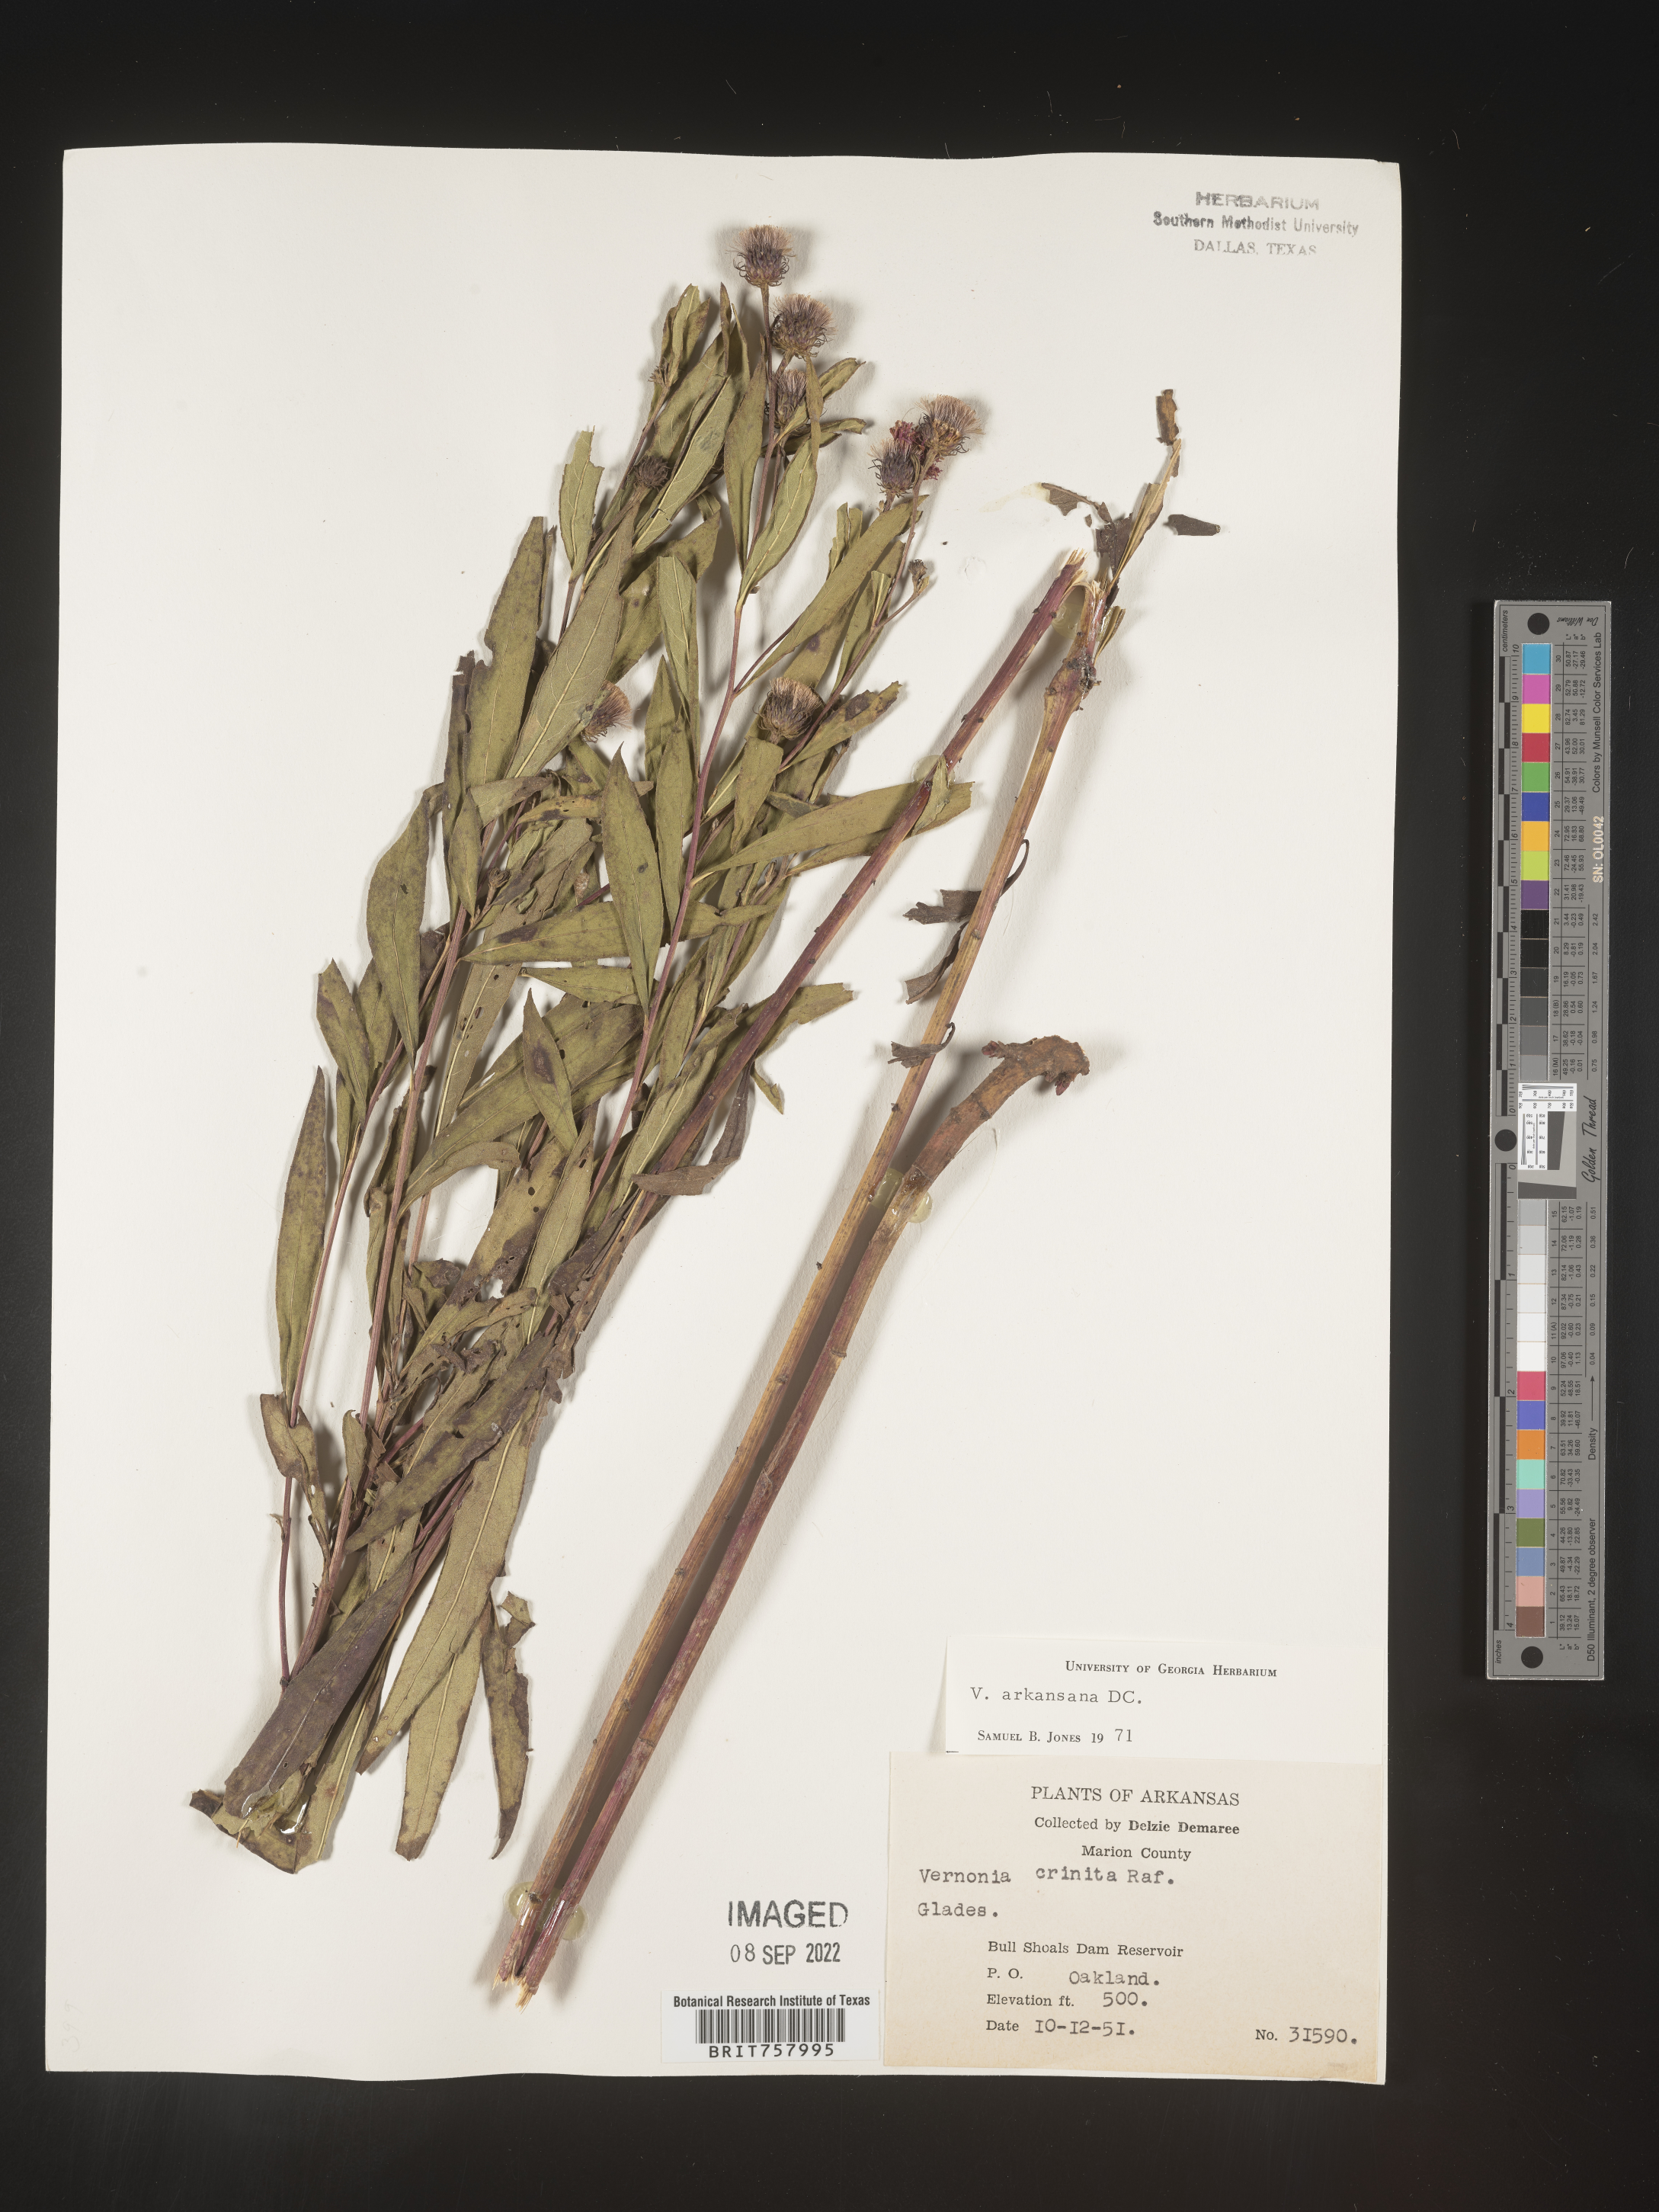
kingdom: Plantae
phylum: Tracheophyta
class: Magnoliopsida
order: Asterales
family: Asteraceae
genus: Vernonia
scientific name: Vernonia arkansana
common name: Ozark ironweed
